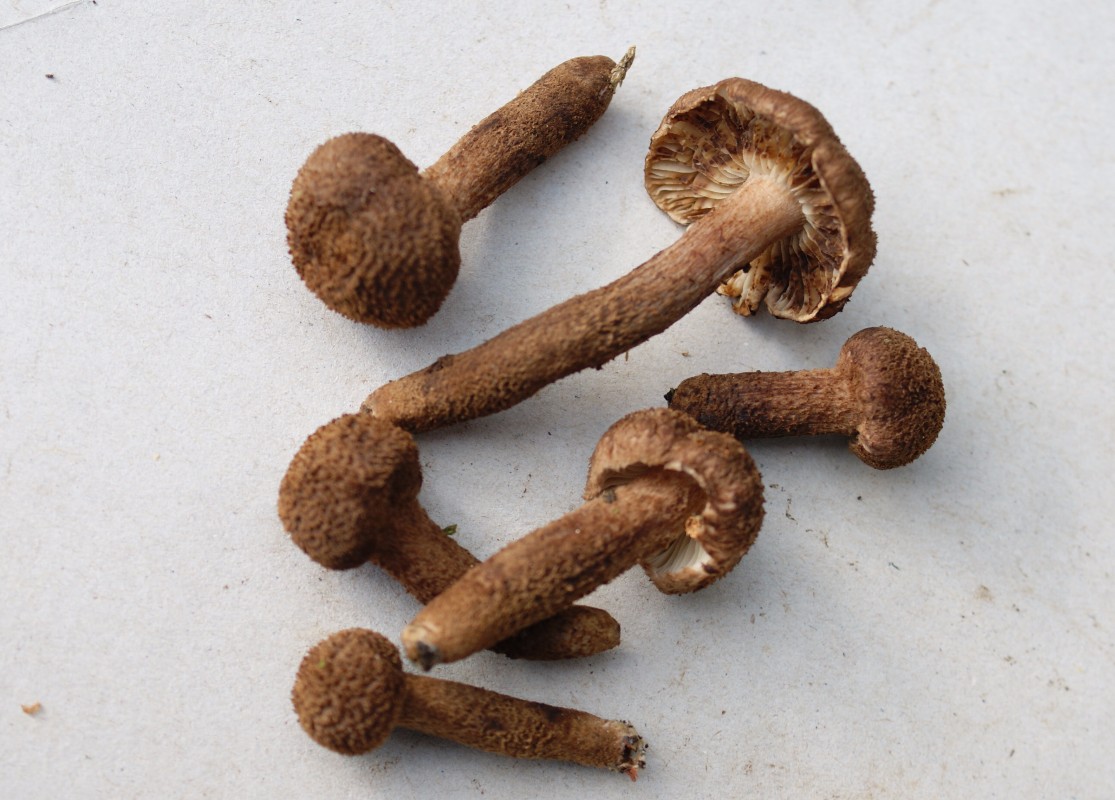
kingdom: Fungi
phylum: Basidiomycota
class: Agaricomycetes
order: Agaricales
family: Inocybaceae
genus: Inocybe
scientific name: Inocybe
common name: trævlhat
